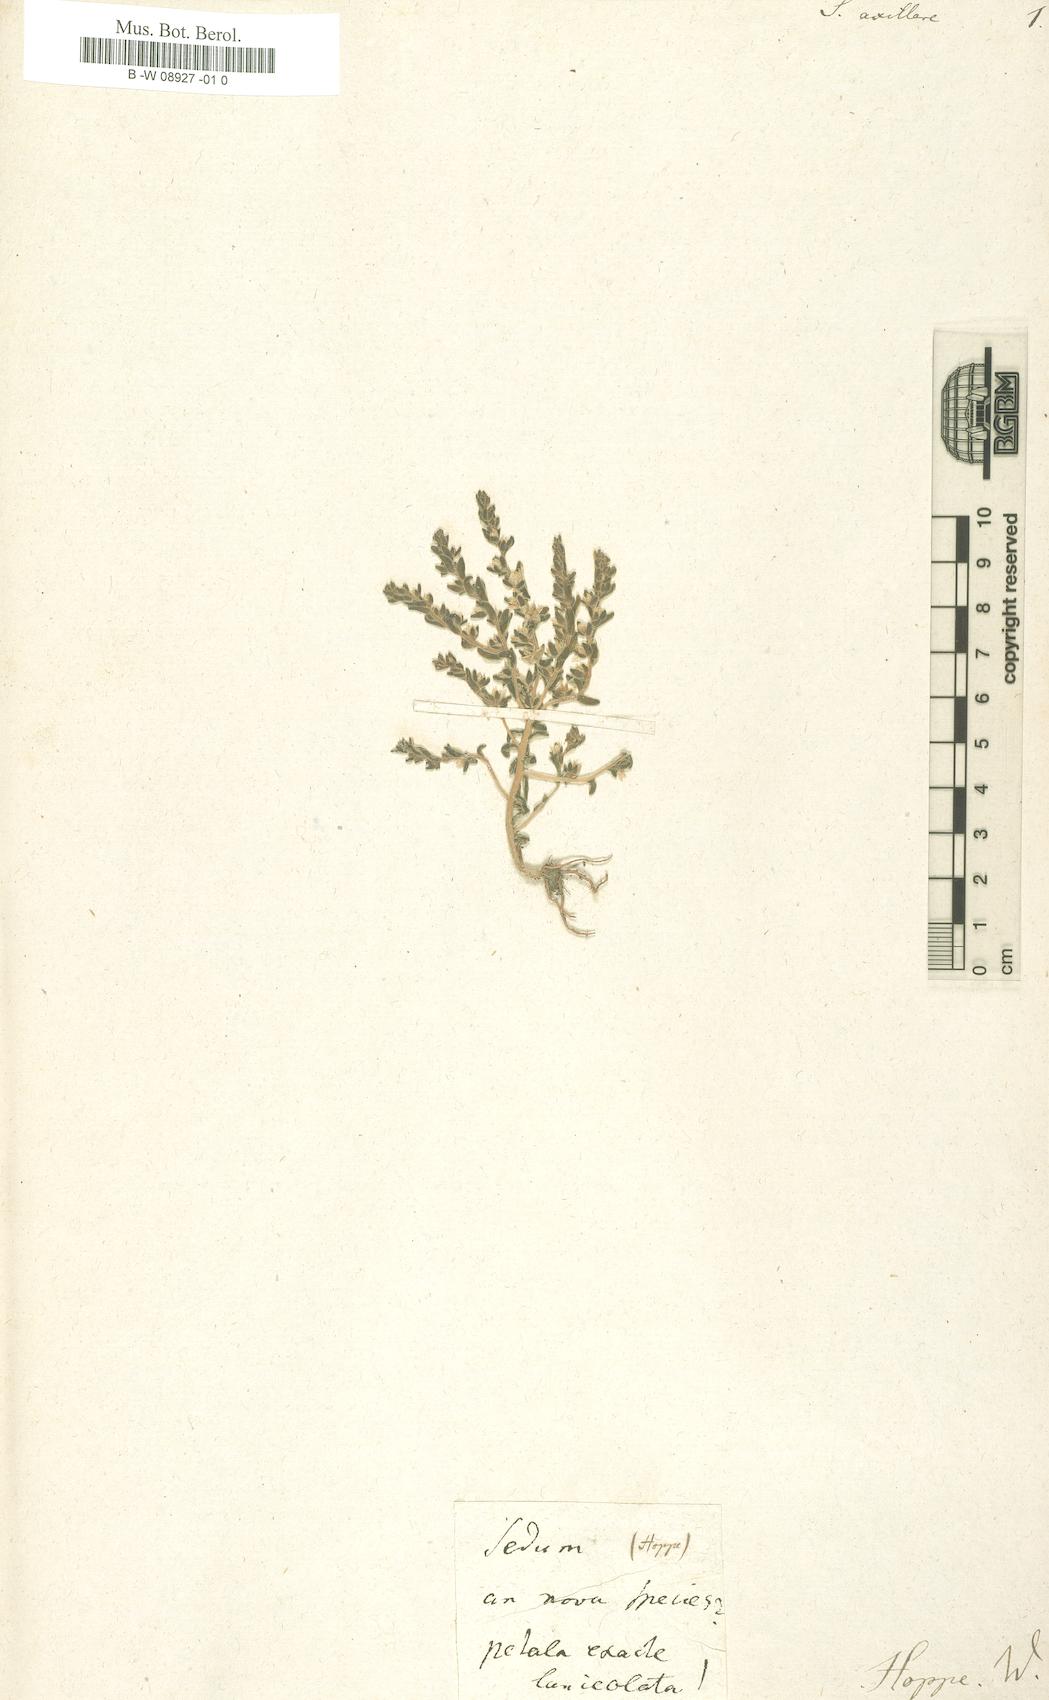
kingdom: Plantae
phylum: Tracheophyta
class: Magnoliopsida
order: Saxifragales
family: Crassulaceae
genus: Sedum
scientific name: Sedum
